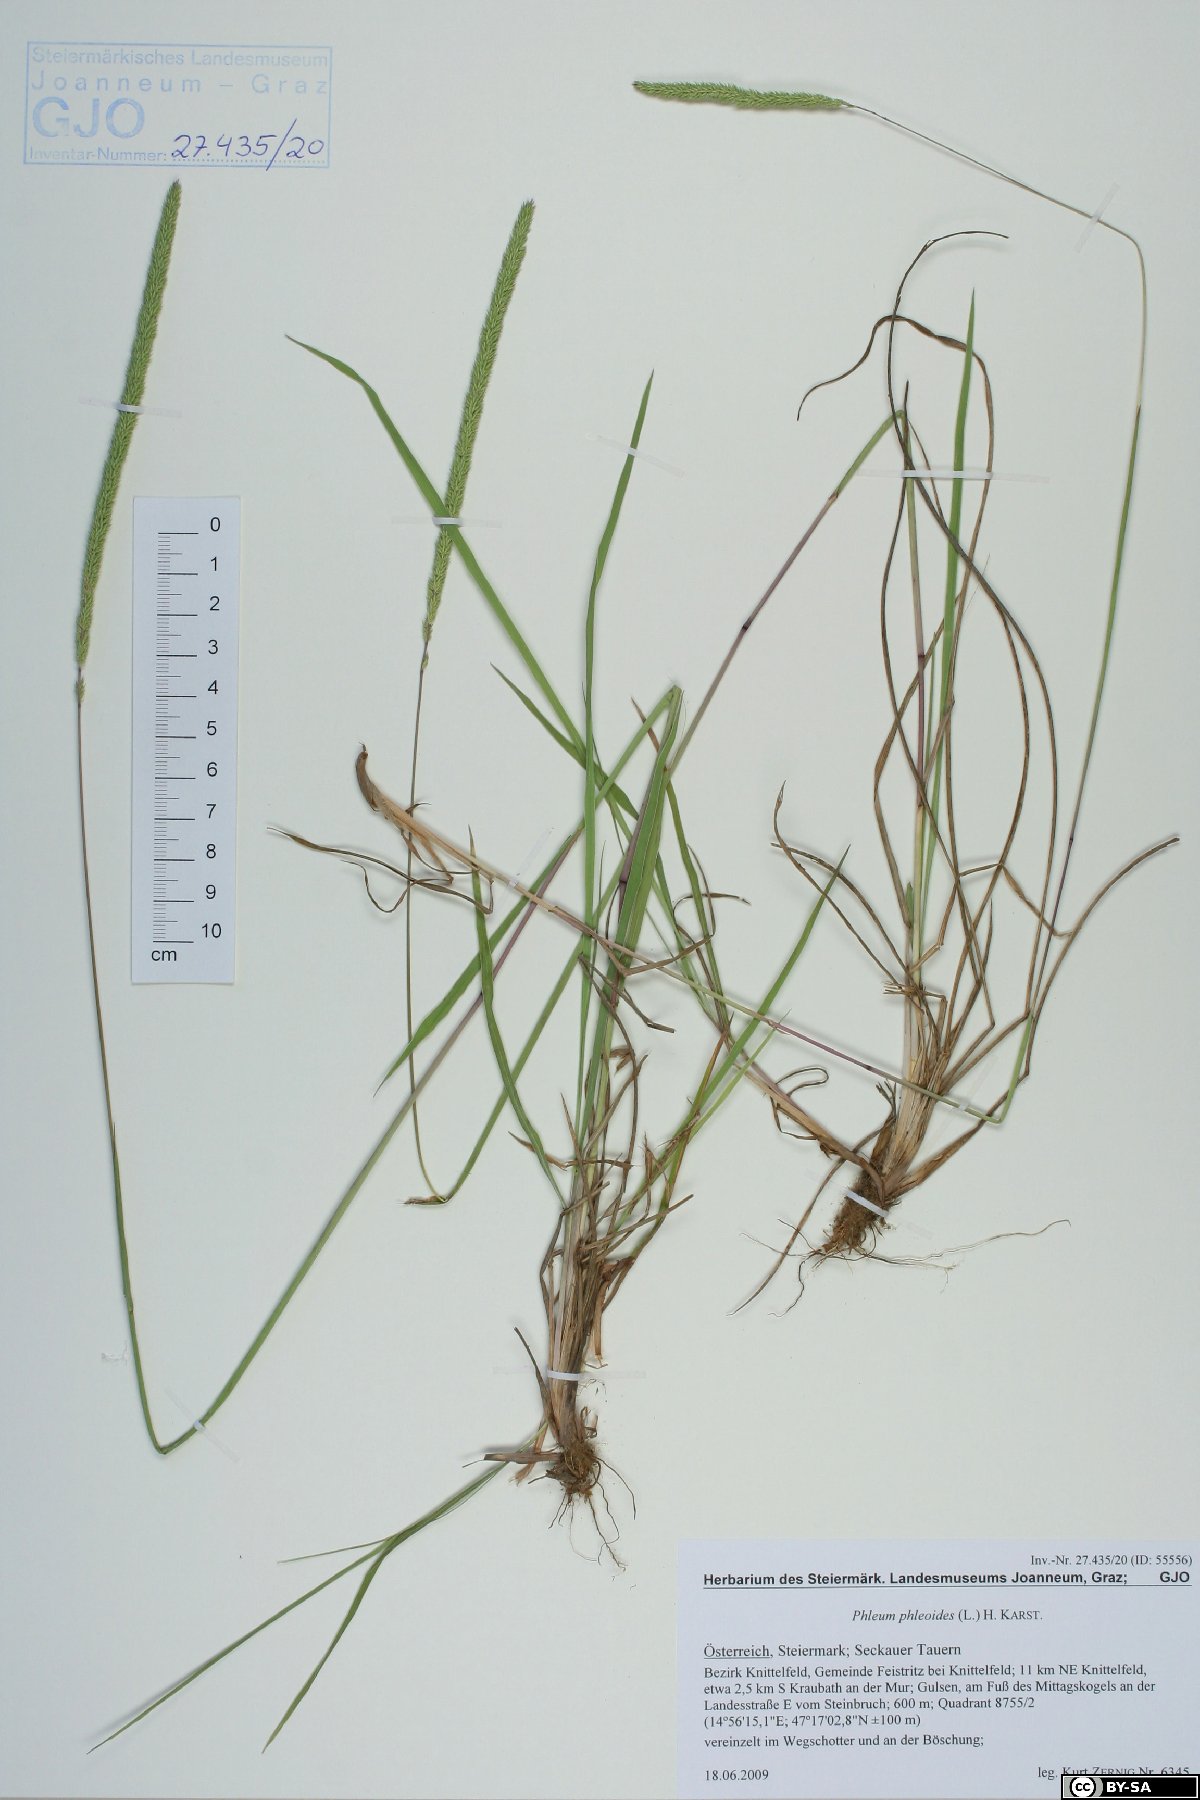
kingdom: Plantae
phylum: Tracheophyta
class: Liliopsida
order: Poales
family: Poaceae
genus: Phleum
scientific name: Phleum phleoides
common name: Purple-stem cat's-tail
